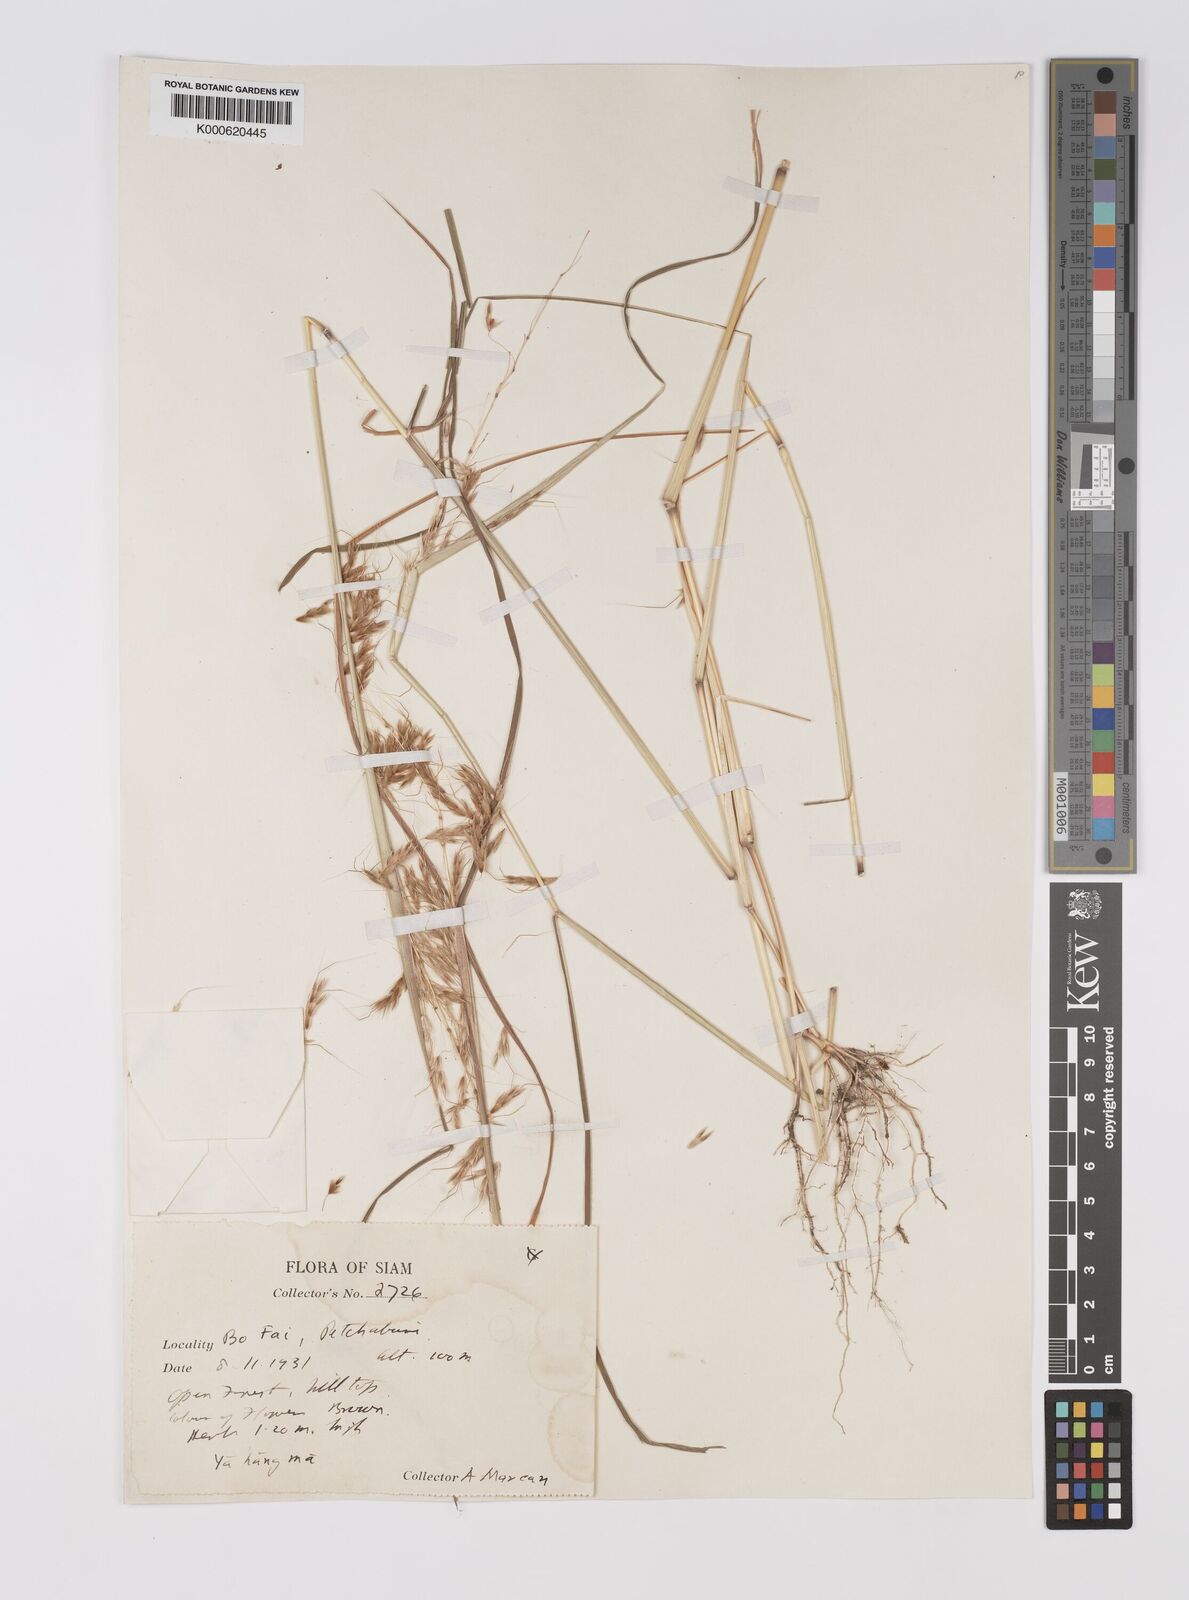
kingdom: Plantae
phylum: Tracheophyta
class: Liliopsida
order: Poales
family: Poaceae
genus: Sorghum
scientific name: Sorghum burmahicum
